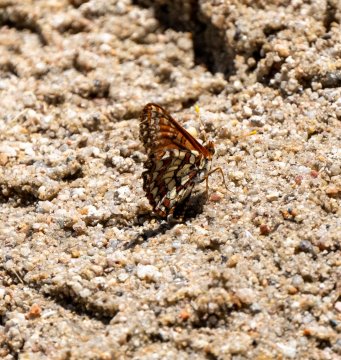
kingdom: Animalia
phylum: Arthropoda
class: Insecta
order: Lepidoptera
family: Nymphalidae
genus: Occidryas
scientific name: Occidryas chalcedona
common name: Chalcedon Checkerspot
